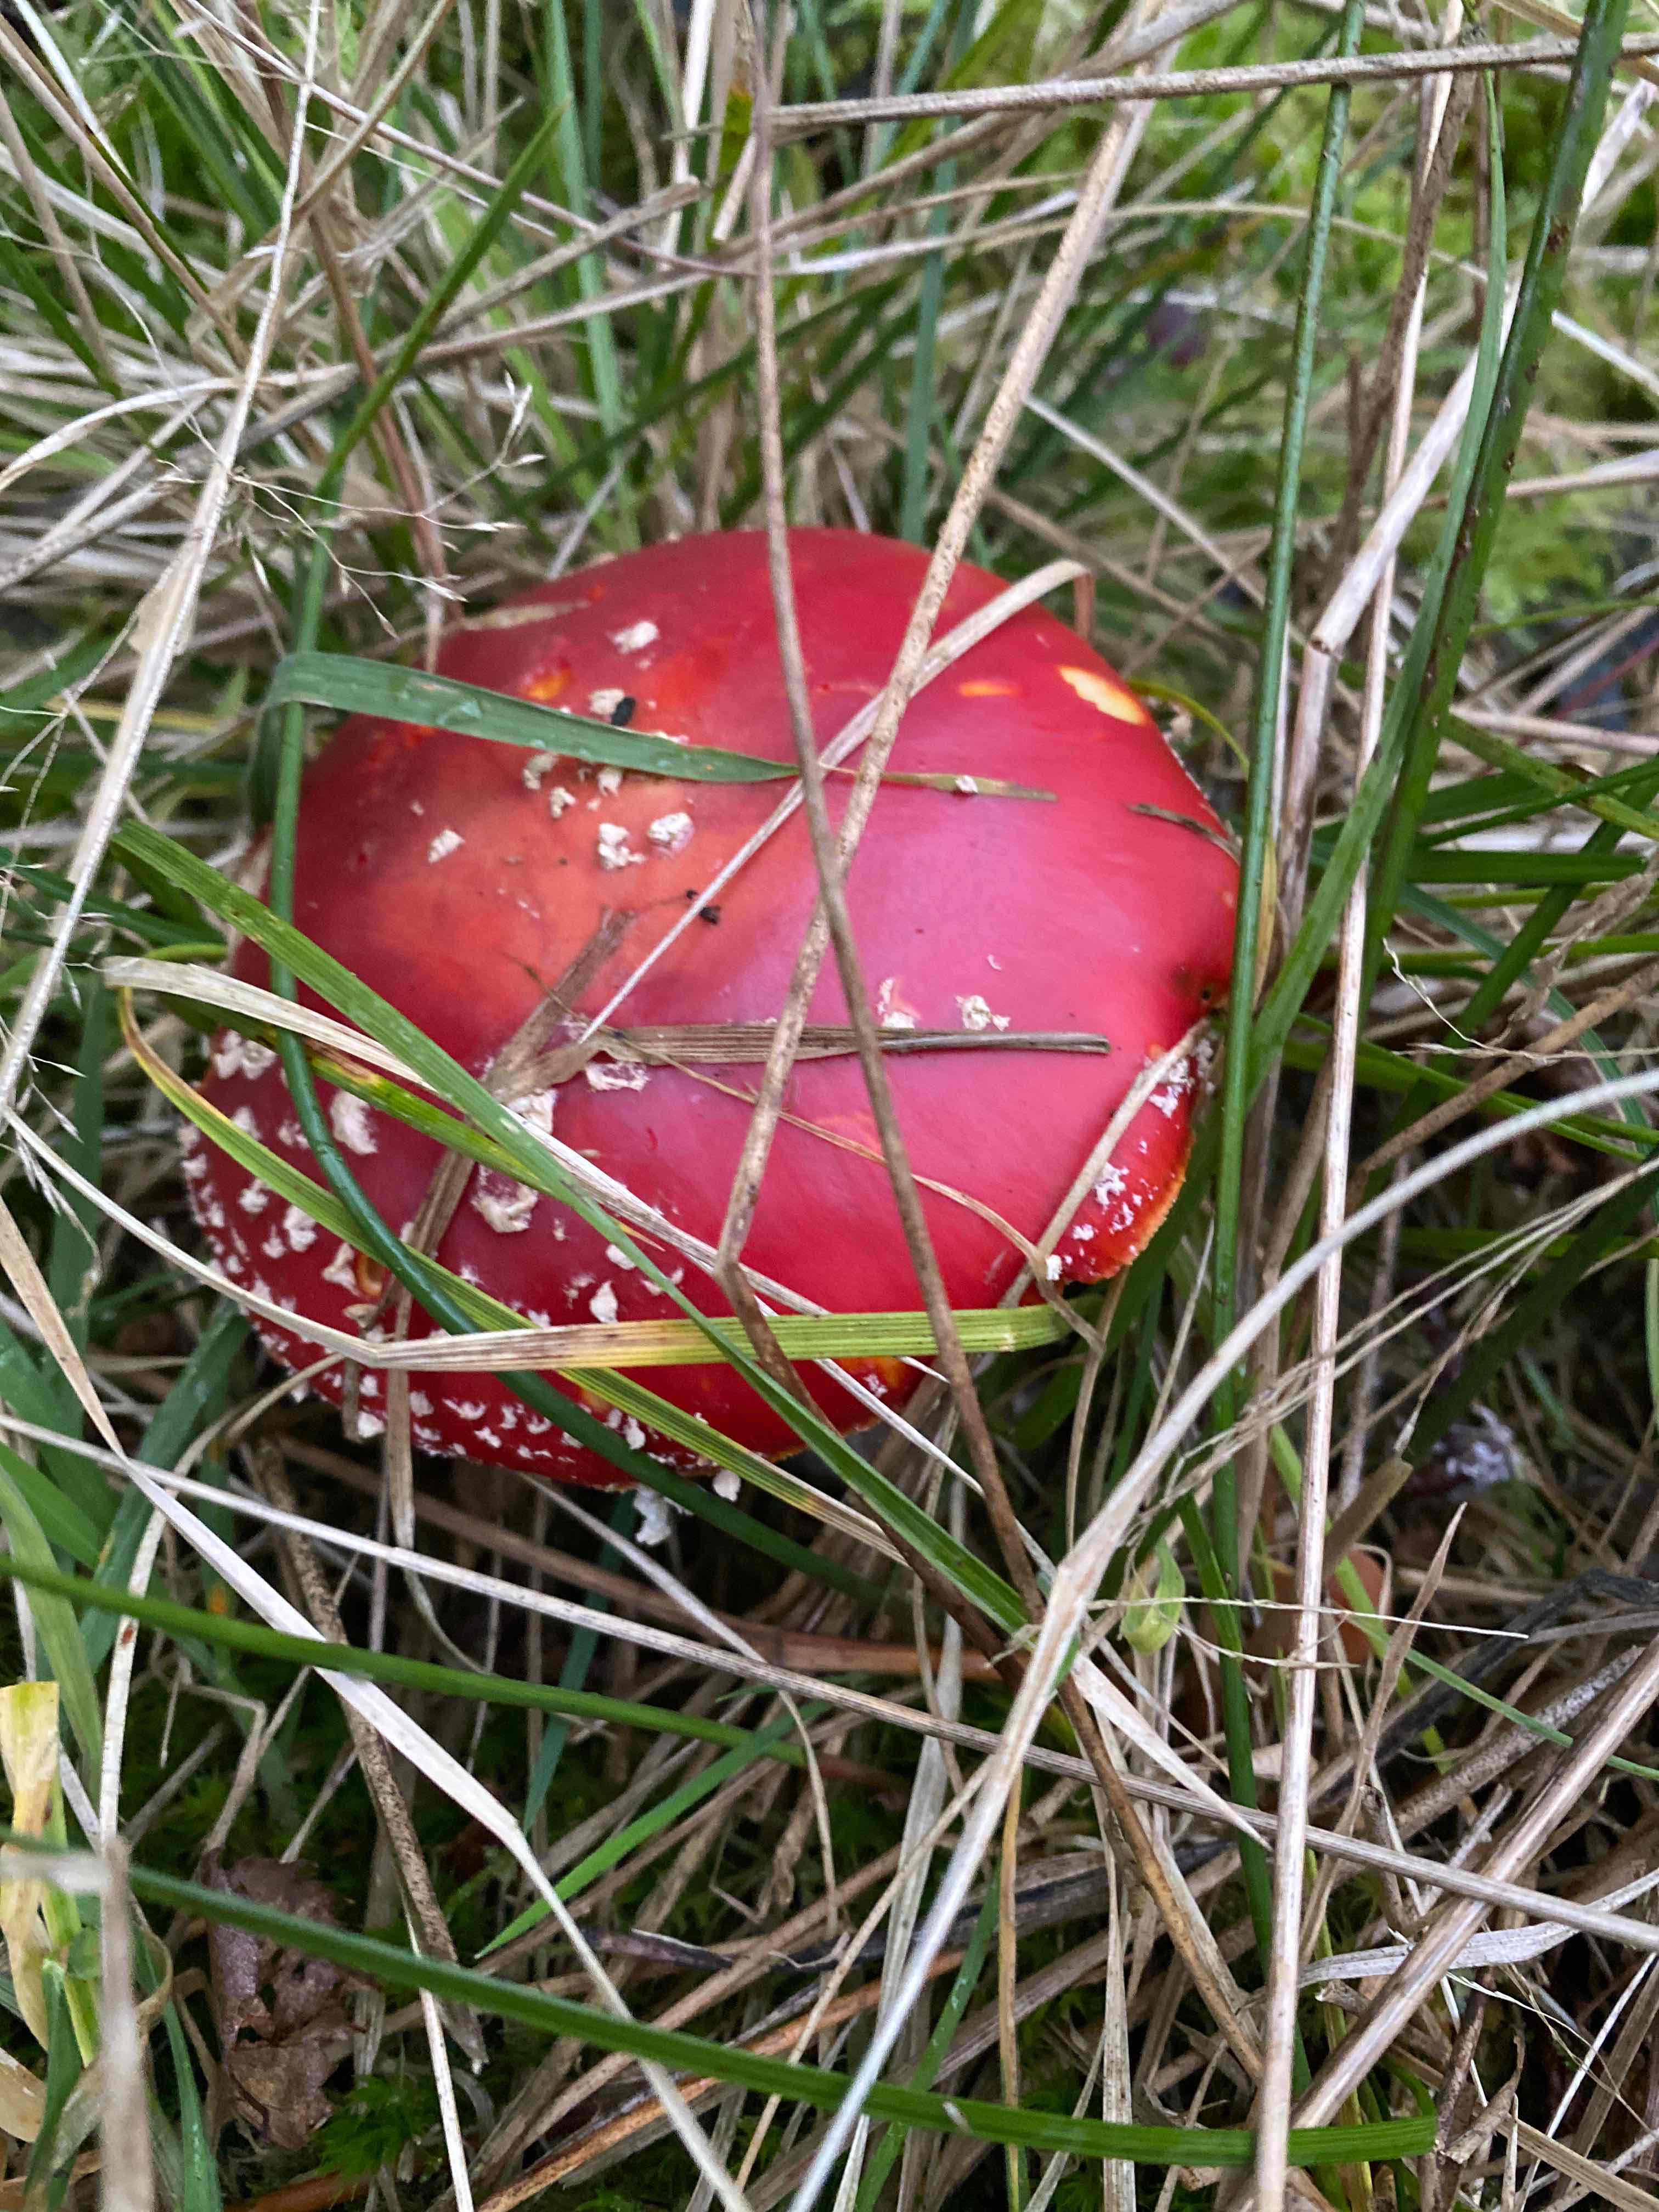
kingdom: Fungi
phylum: Basidiomycota
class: Agaricomycetes
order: Agaricales
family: Amanitaceae
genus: Amanita
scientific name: Amanita muscaria
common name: rød fluesvamp
